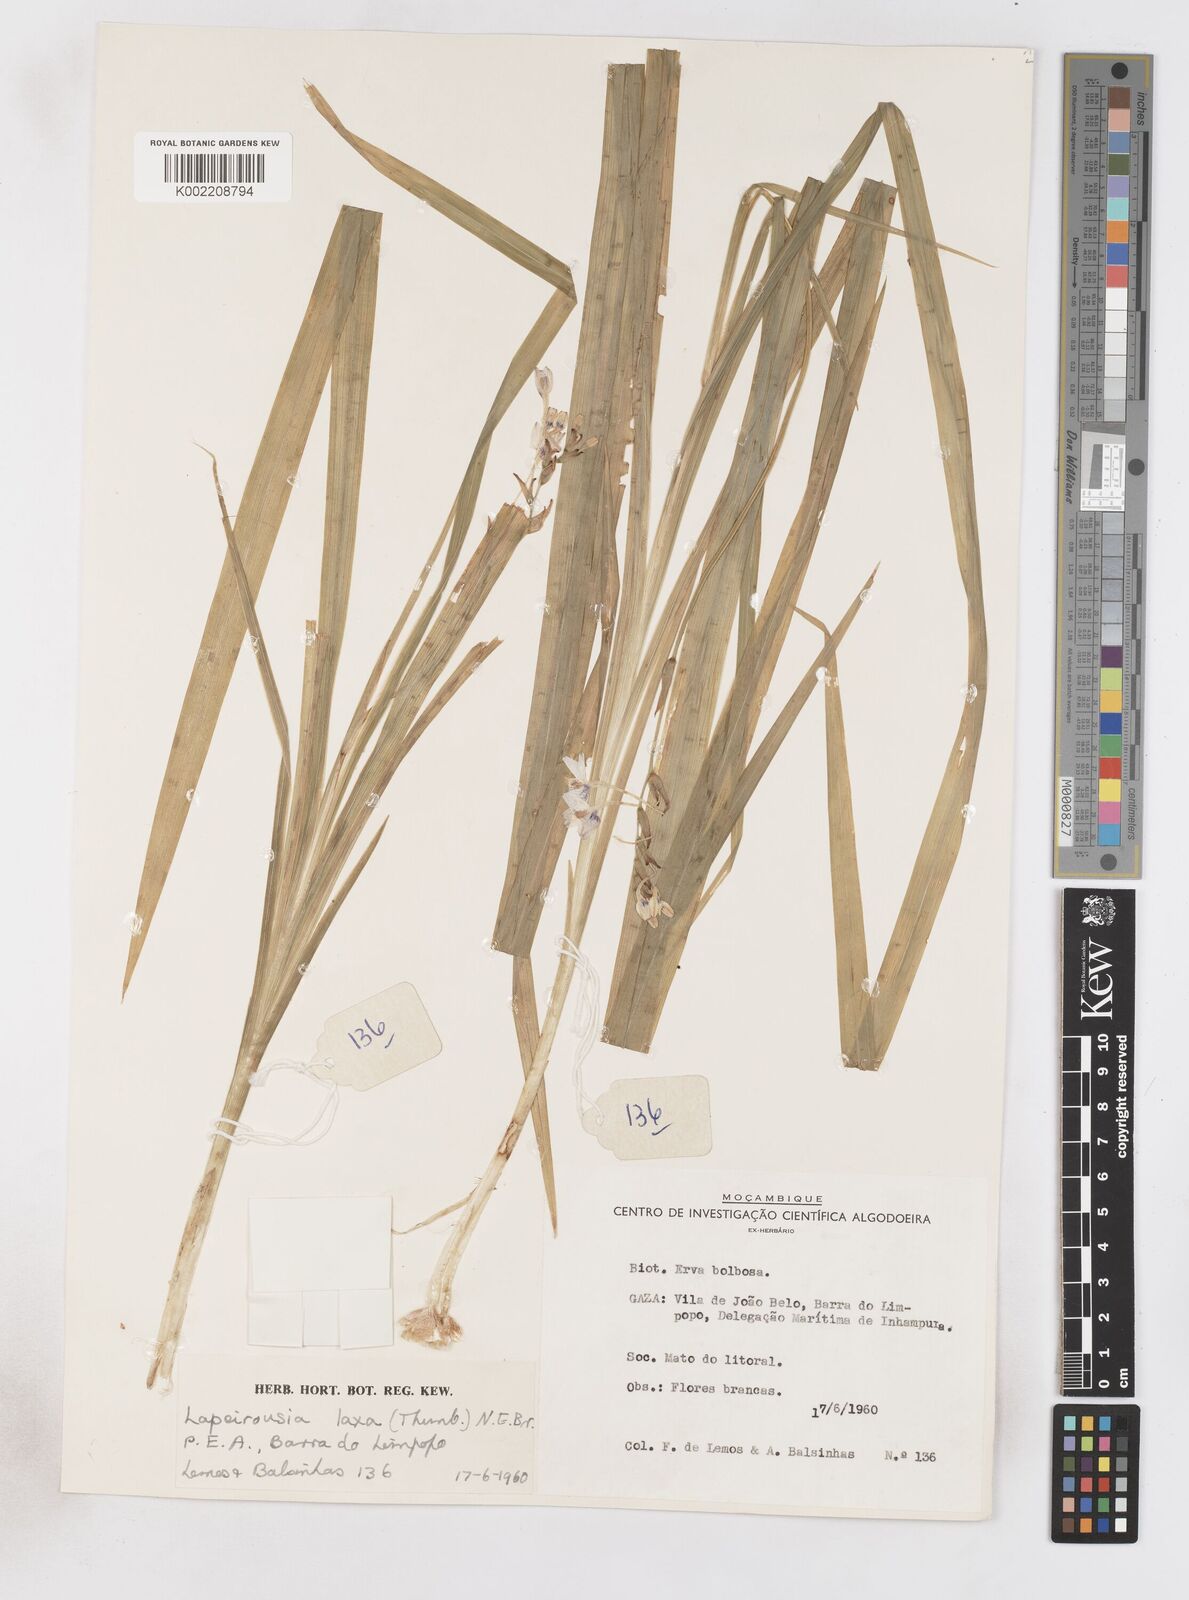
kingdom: Plantae
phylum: Tracheophyta
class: Liliopsida
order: Asparagales
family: Iridaceae
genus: Freesia
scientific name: Freesia laxa
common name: False freesia
